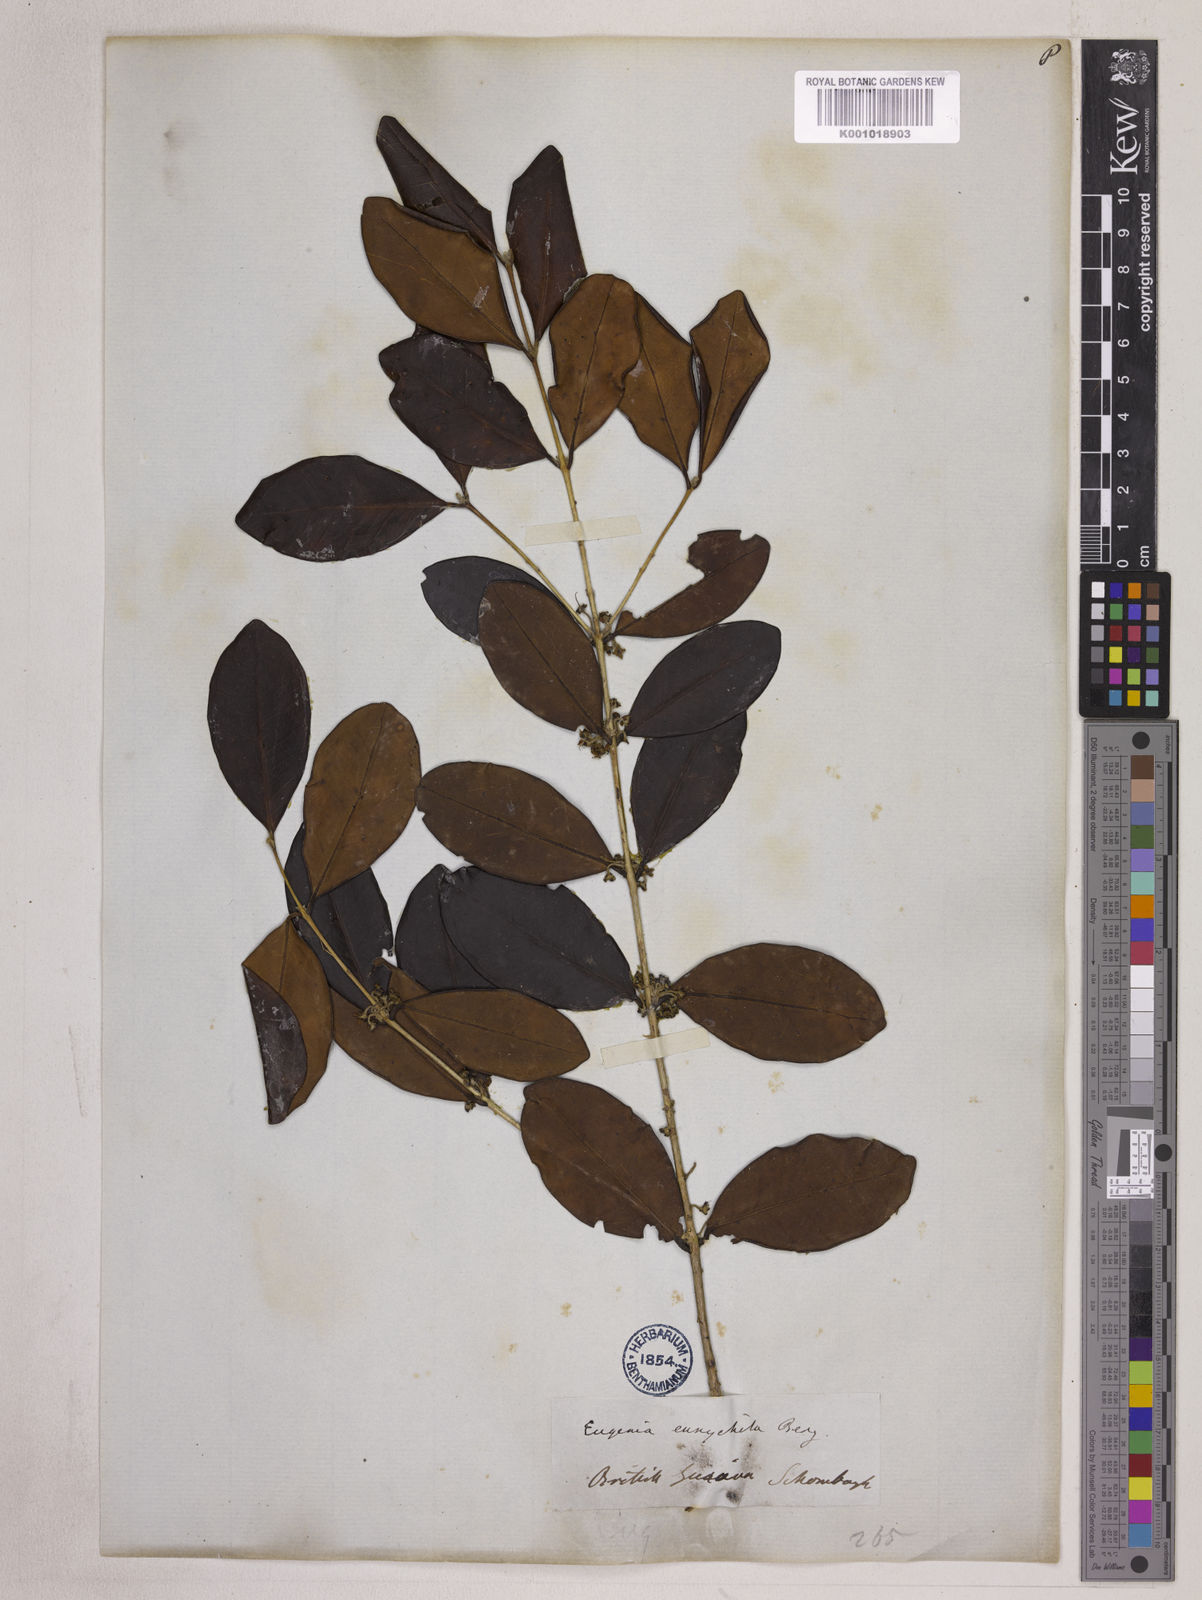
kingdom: Plantae
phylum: Tracheophyta
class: Magnoliopsida
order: Myrtales
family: Myrtaceae
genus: Eugenia
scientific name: Eugenia eurycheila
